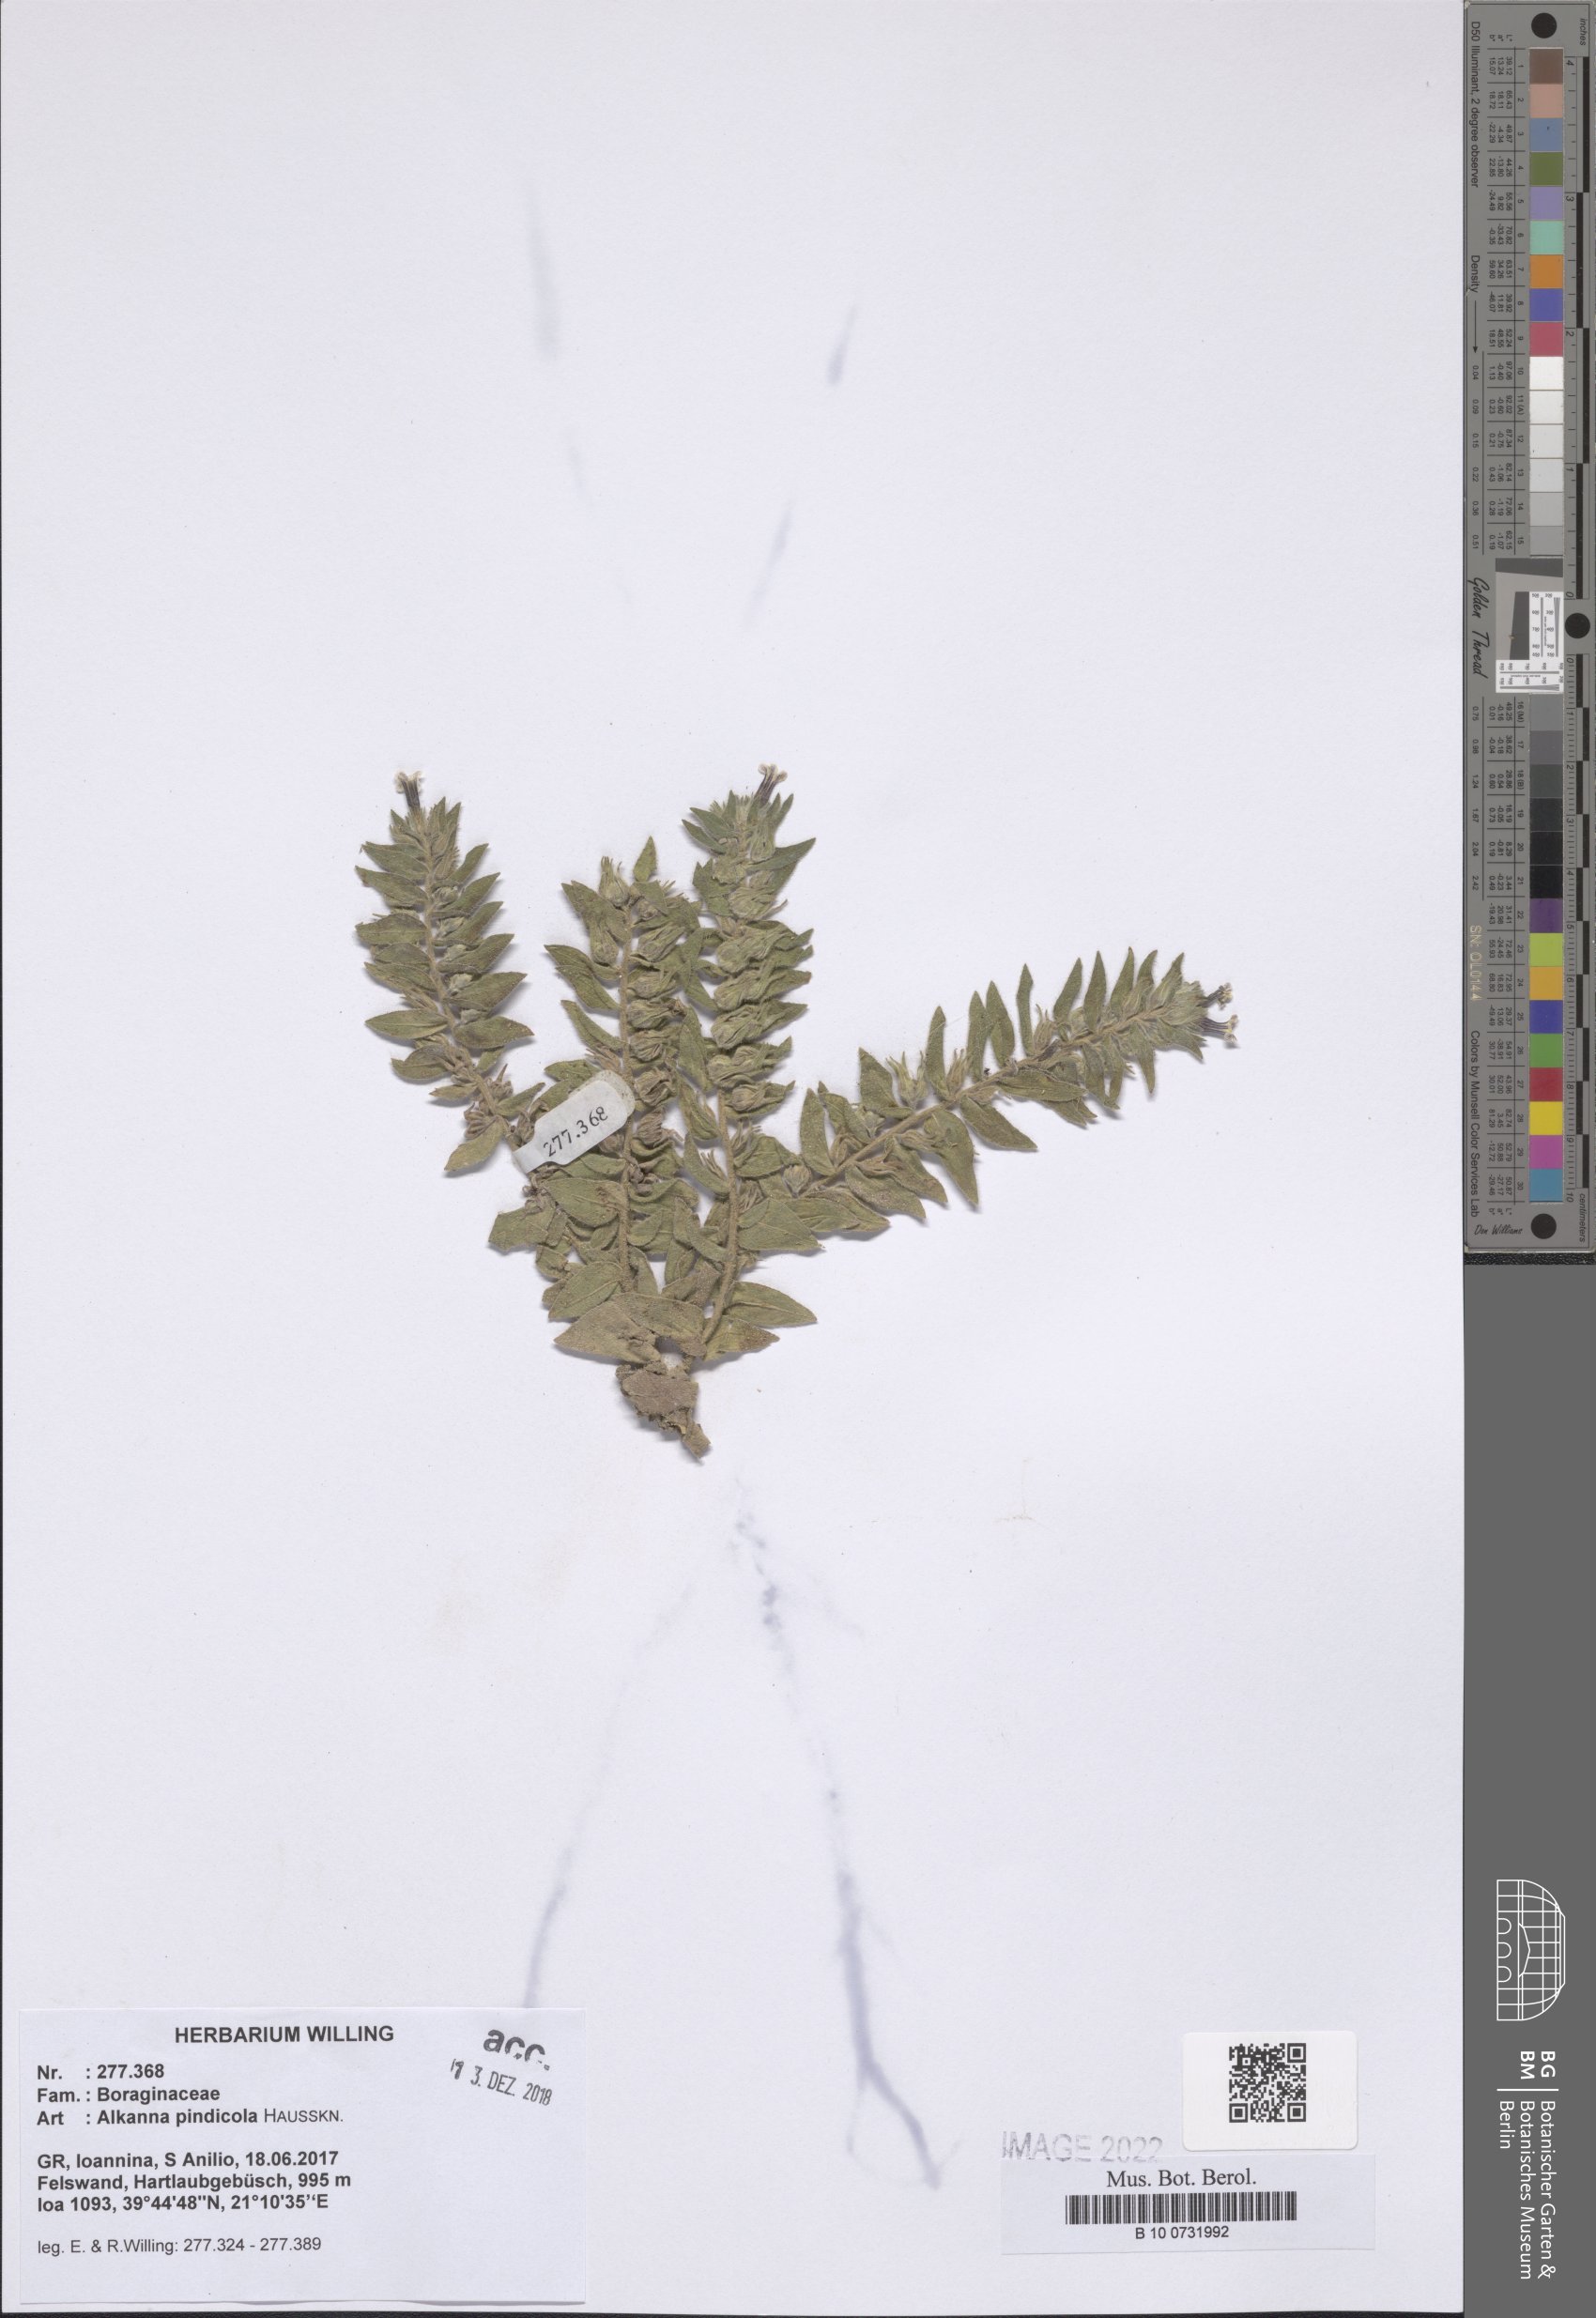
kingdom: Plantae
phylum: Tracheophyta
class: Magnoliopsida
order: Boraginales
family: Boraginaceae
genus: Alkanna
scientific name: Alkanna pindicola
